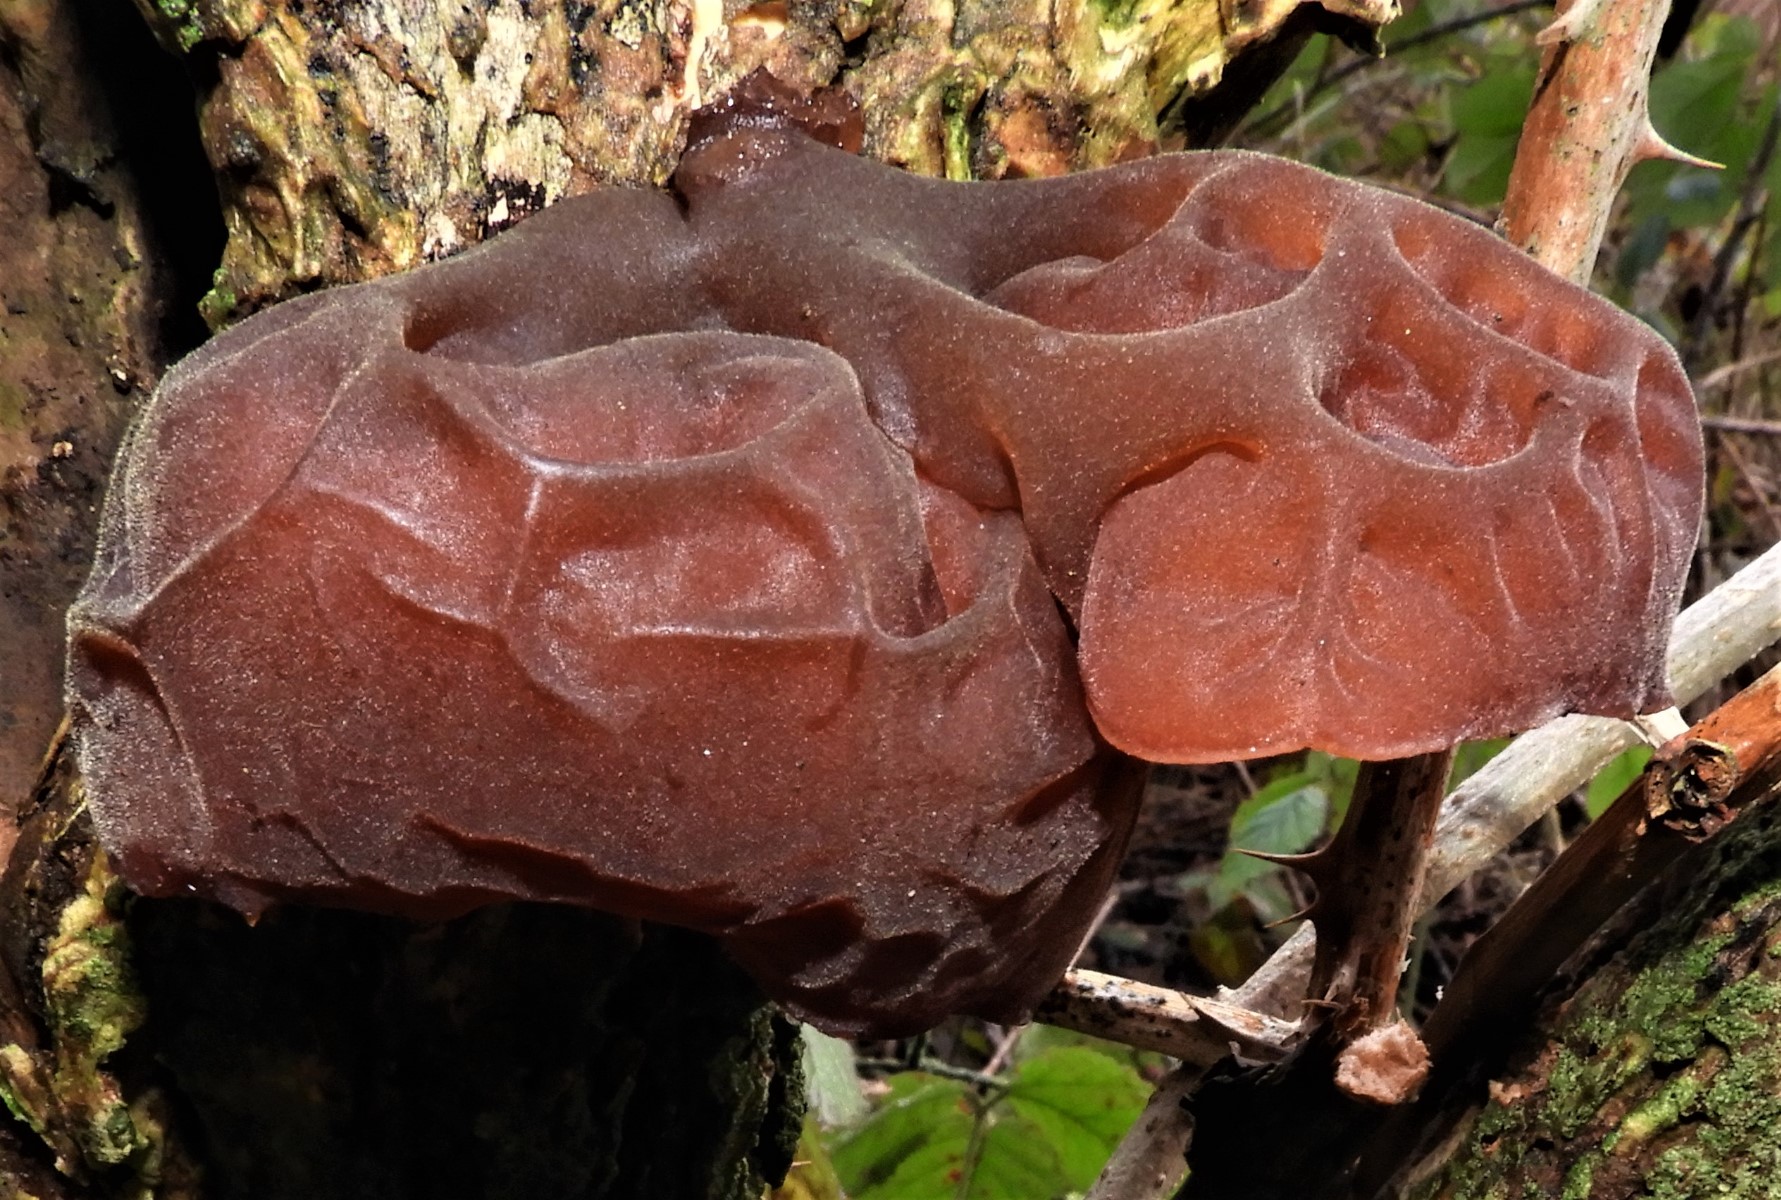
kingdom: Fungi
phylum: Basidiomycota
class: Agaricomycetes
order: Auriculariales
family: Auriculariaceae
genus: Auricularia
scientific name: Auricularia auricula-judae
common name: almindelig judasøre
